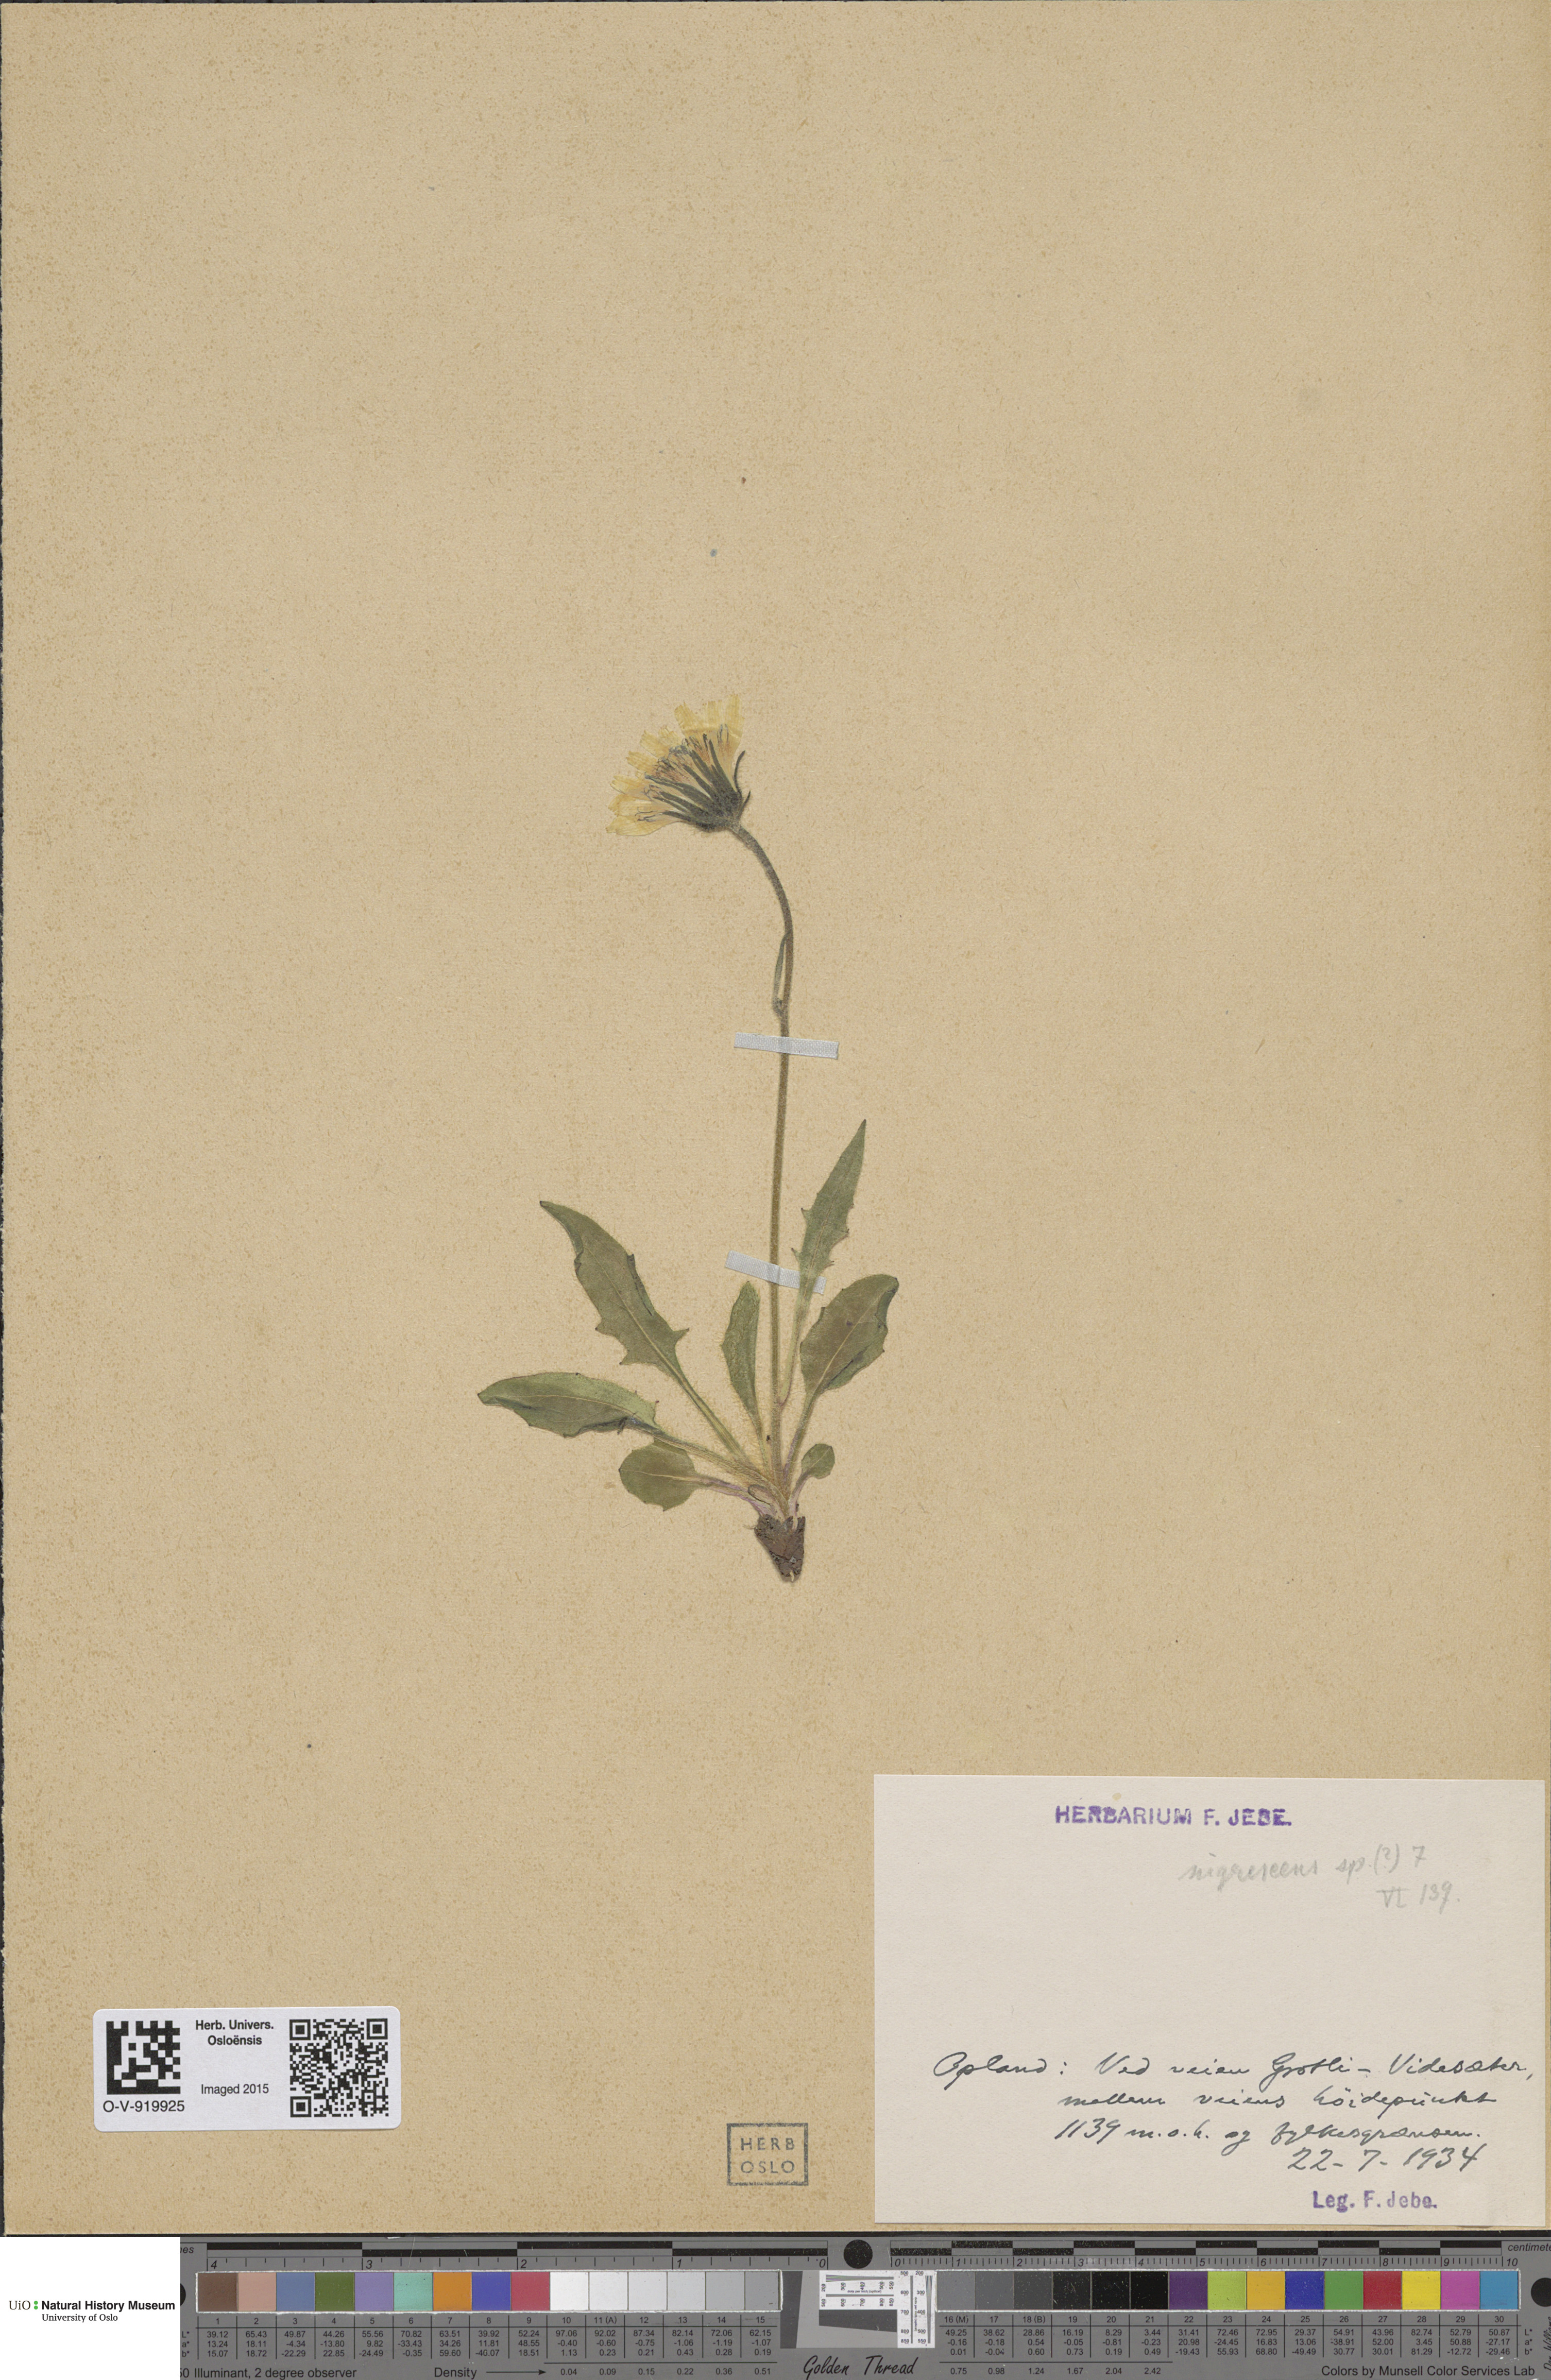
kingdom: Plantae
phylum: Tracheophyta
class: Magnoliopsida
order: Asterales
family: Asteraceae
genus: Hieracium
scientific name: Hieracium nigrescens
